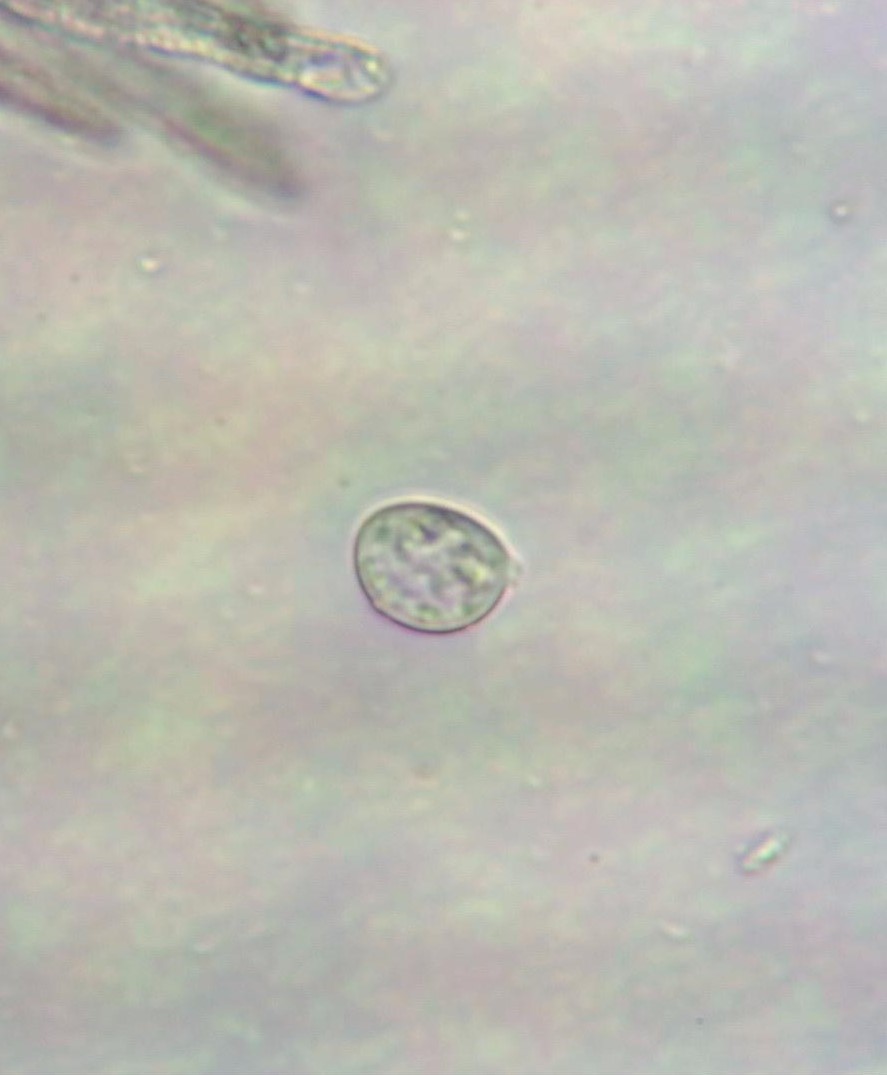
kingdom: Fungi
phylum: Basidiomycota
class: Agaricomycetes
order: Agaricales
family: Niaceae
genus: Lachnella
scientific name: Lachnella alboviolascens
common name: grå frynserede
